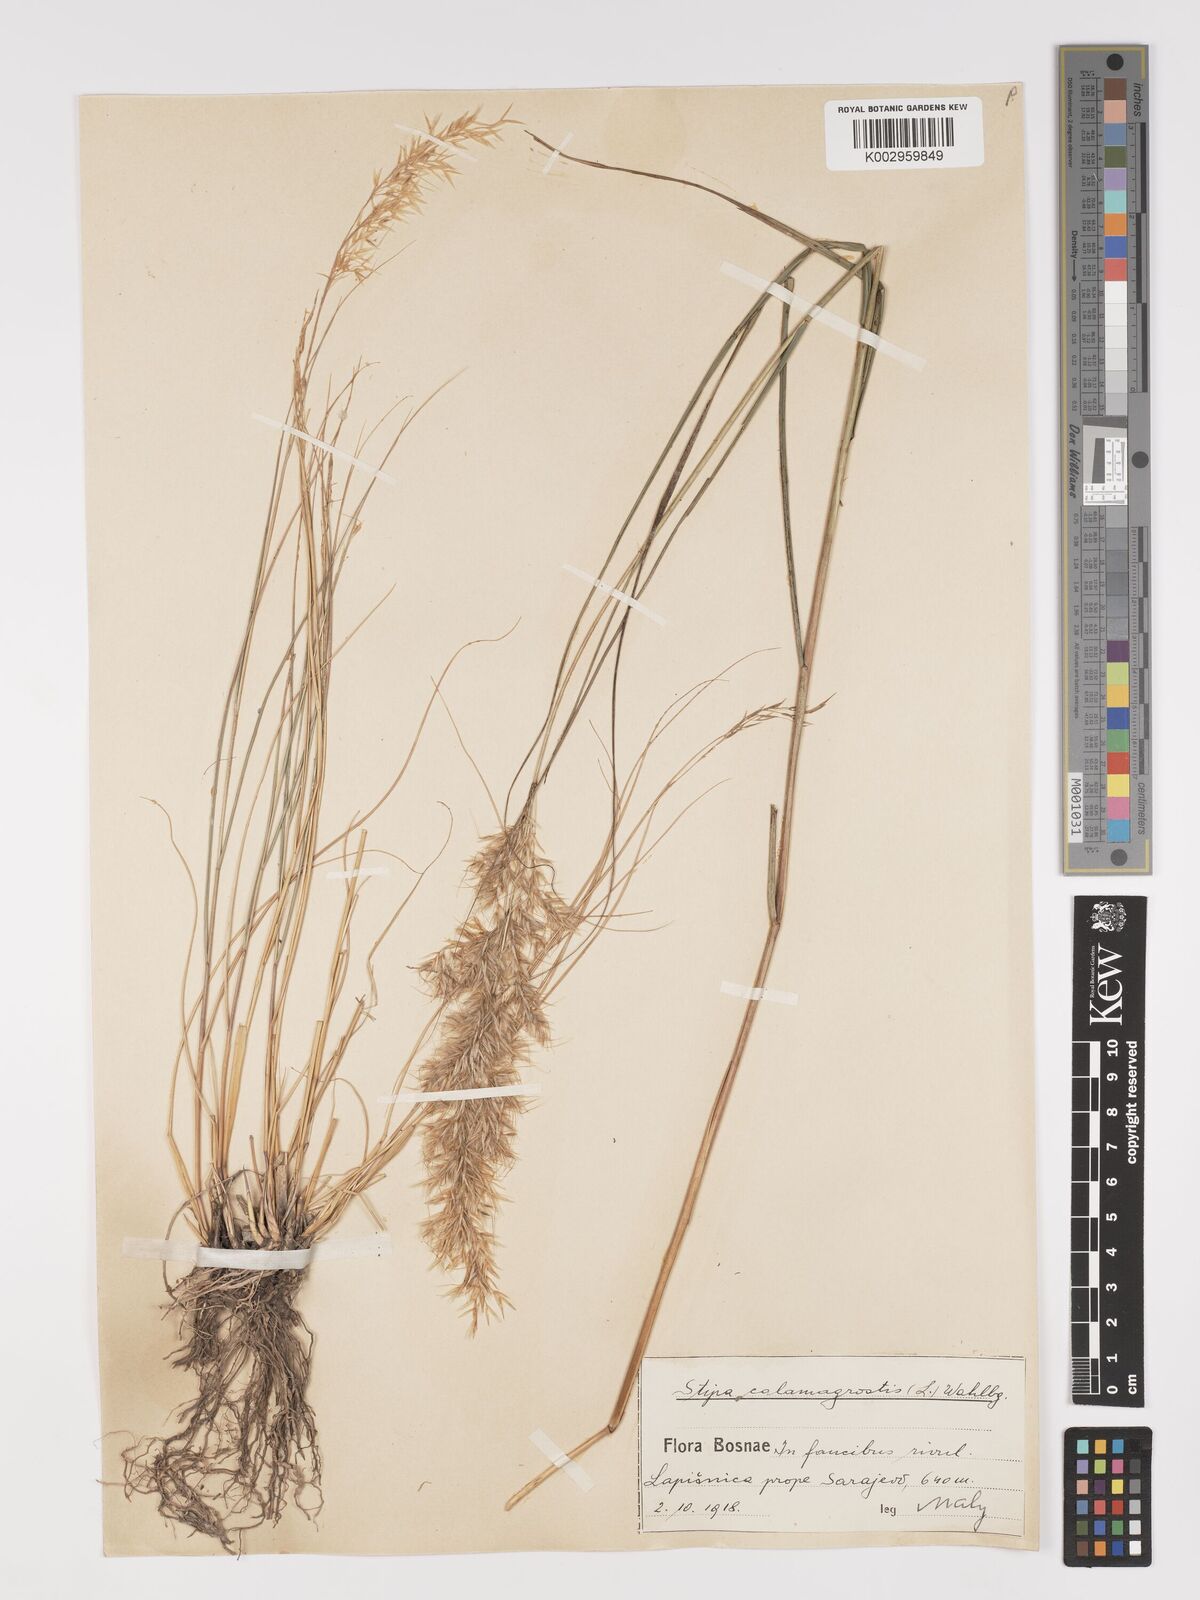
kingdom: Plantae
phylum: Tracheophyta
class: Liliopsida
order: Poales
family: Poaceae
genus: Achnatherum
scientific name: Achnatherum calamagrostis
